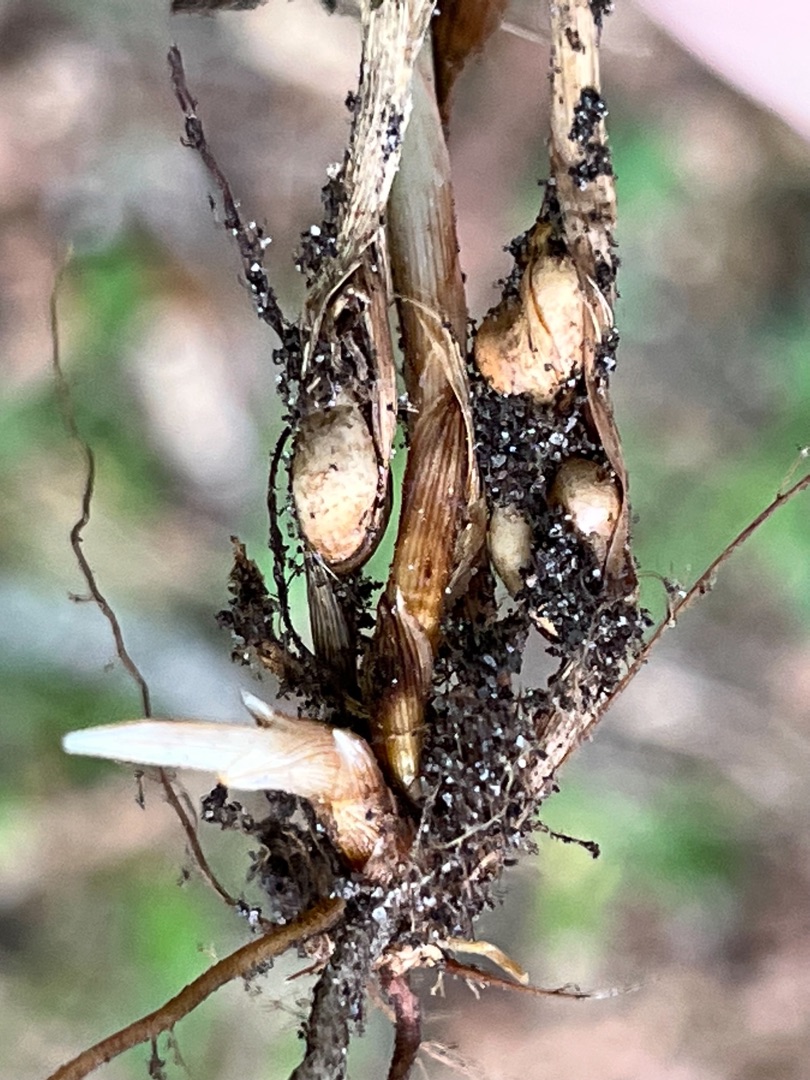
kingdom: Animalia
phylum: Arthropoda
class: Insecta
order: Diptera
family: Cecidomyiidae
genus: Planetella
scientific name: Planetella arenariae
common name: Sandstargalmyg
